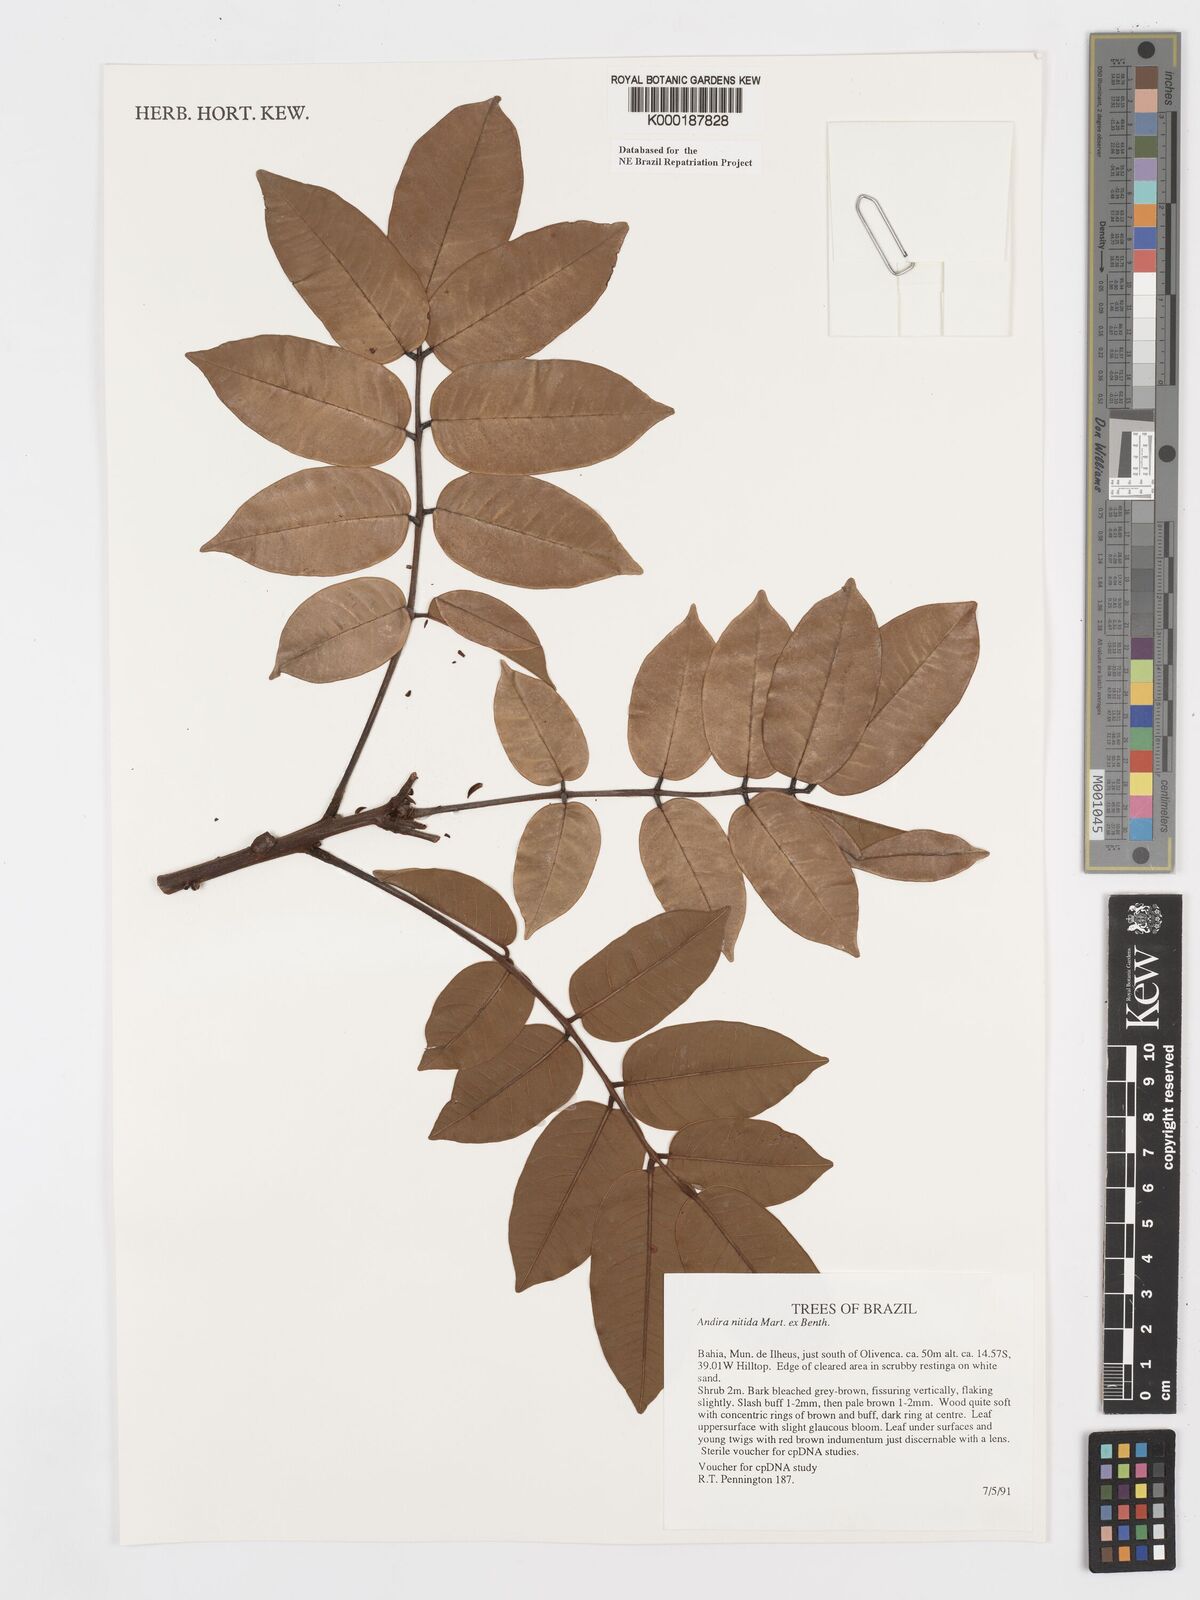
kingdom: Plantae
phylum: Tracheophyta
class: Magnoliopsida
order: Fabales
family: Fabaceae
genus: Andira
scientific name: Andira nitida
